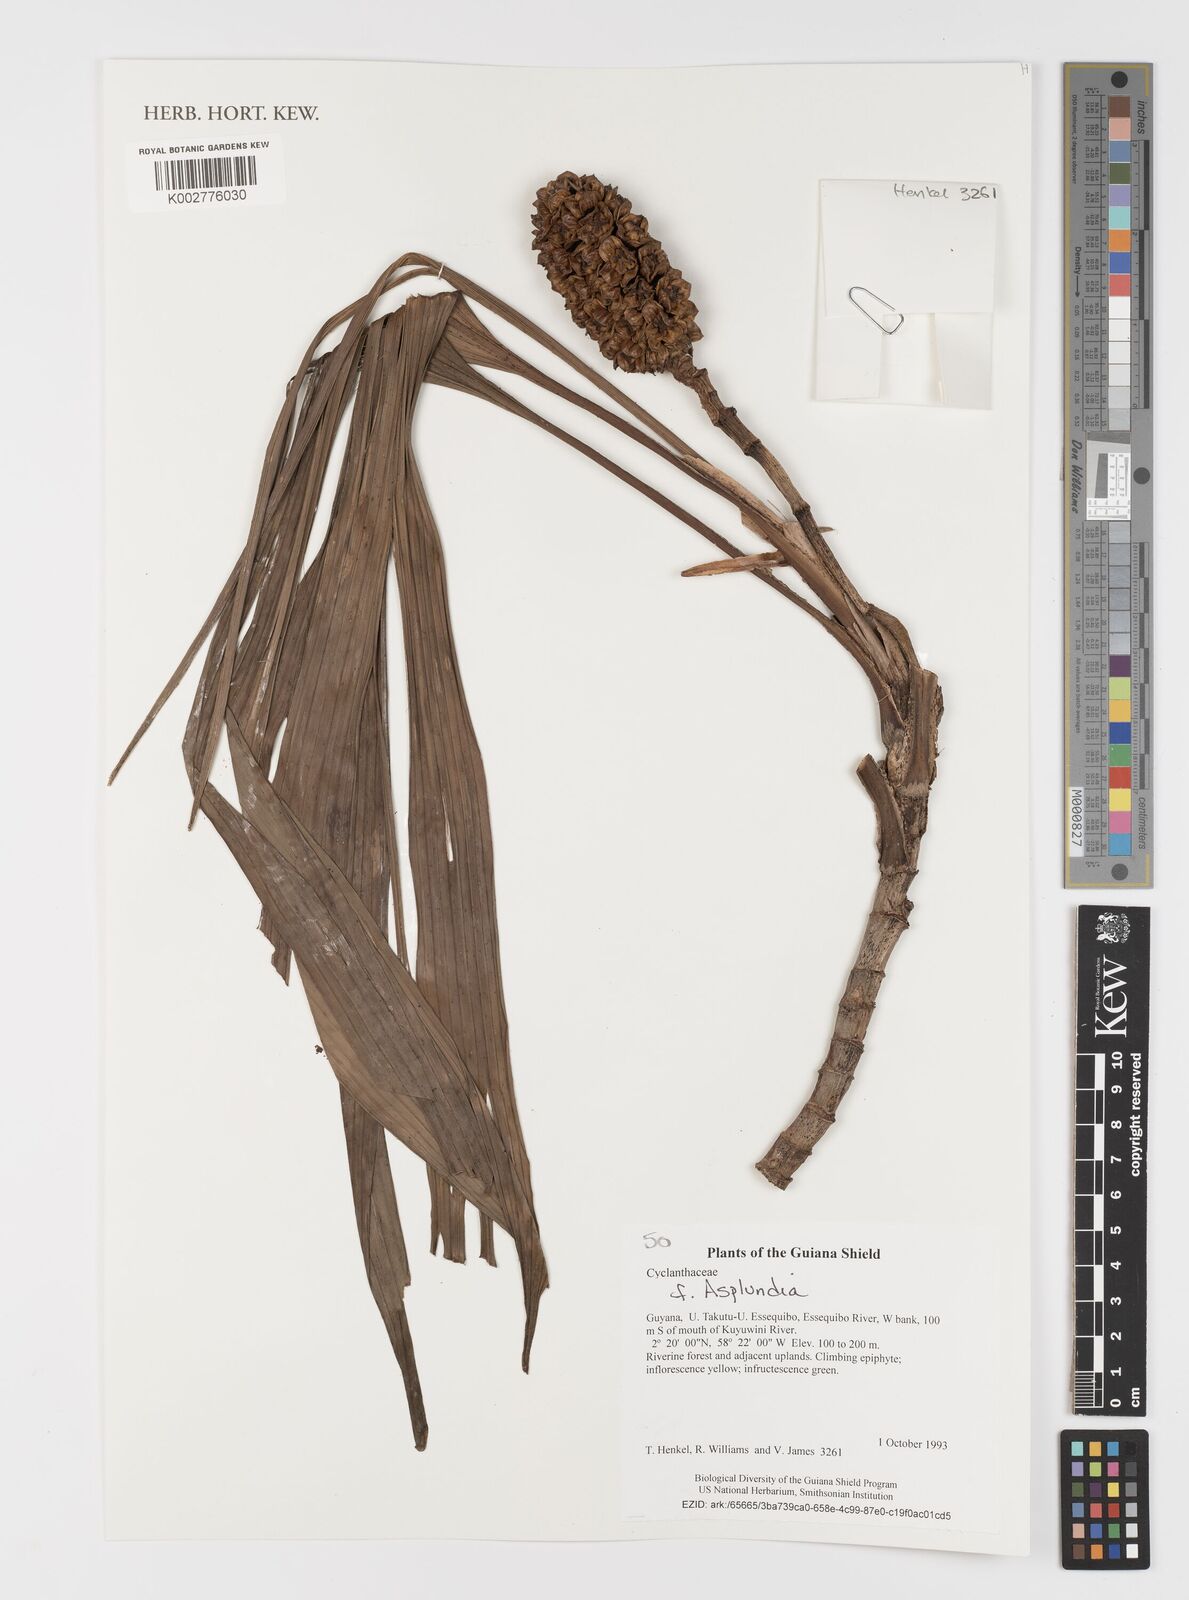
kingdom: Plantae
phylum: Tracheophyta
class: Liliopsida
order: Pandanales
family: Cyclanthaceae
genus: Asplundia
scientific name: Asplundia
